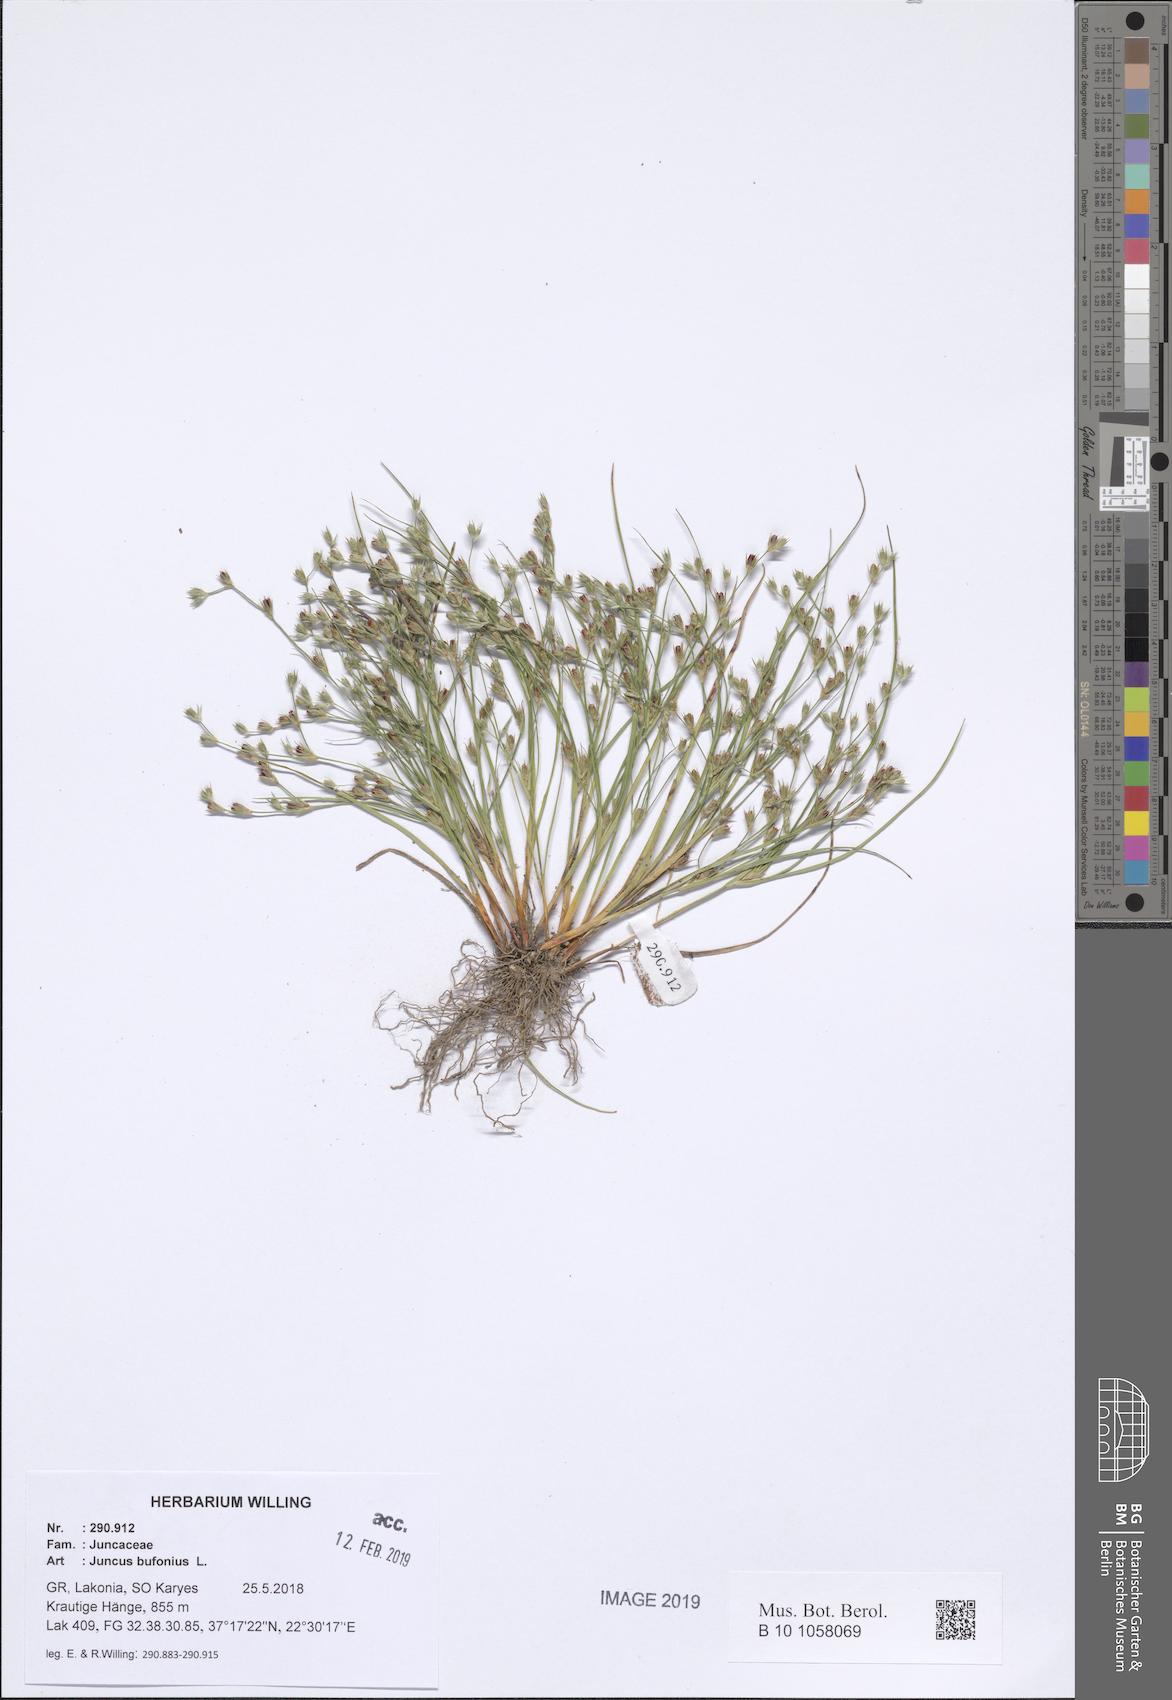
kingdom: Plantae
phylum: Tracheophyta
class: Liliopsida
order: Poales
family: Juncaceae
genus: Juncus
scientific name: Juncus bufonius
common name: Toad rush
